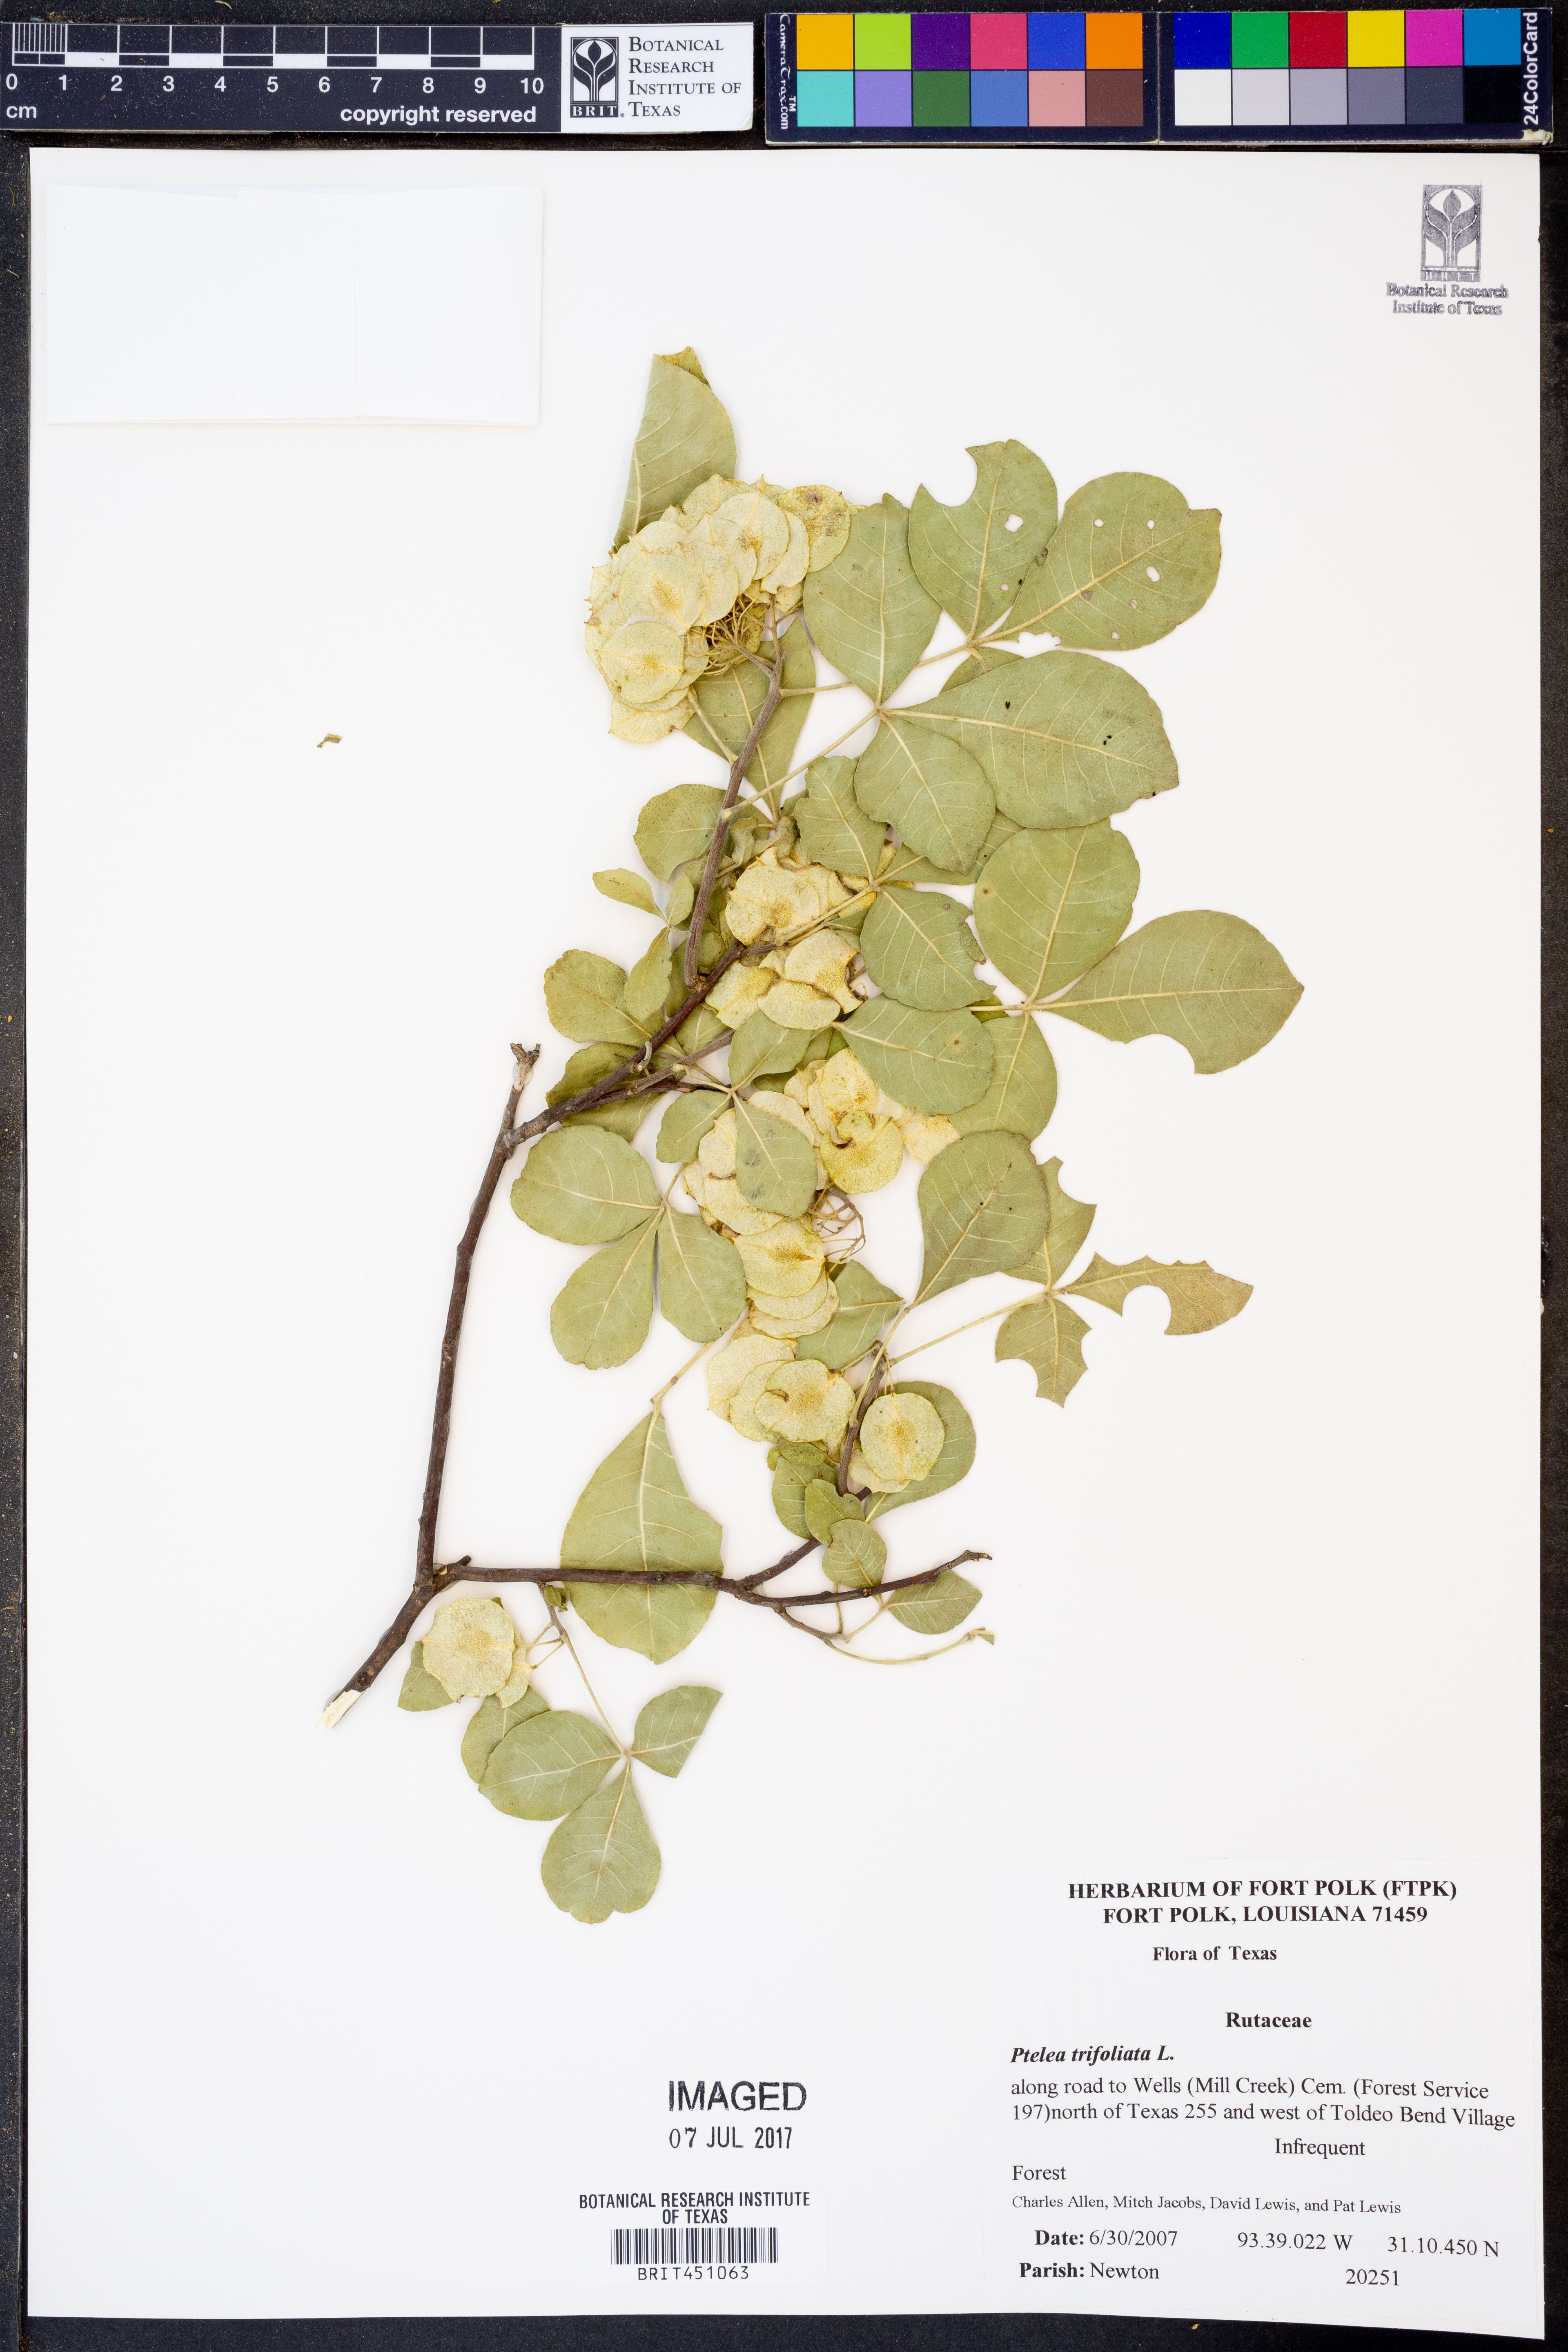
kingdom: Plantae
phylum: Tracheophyta
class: Magnoliopsida
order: Sapindales
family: Rutaceae
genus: Ptelea
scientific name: Ptelea trifoliata
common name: Common hop-tree
